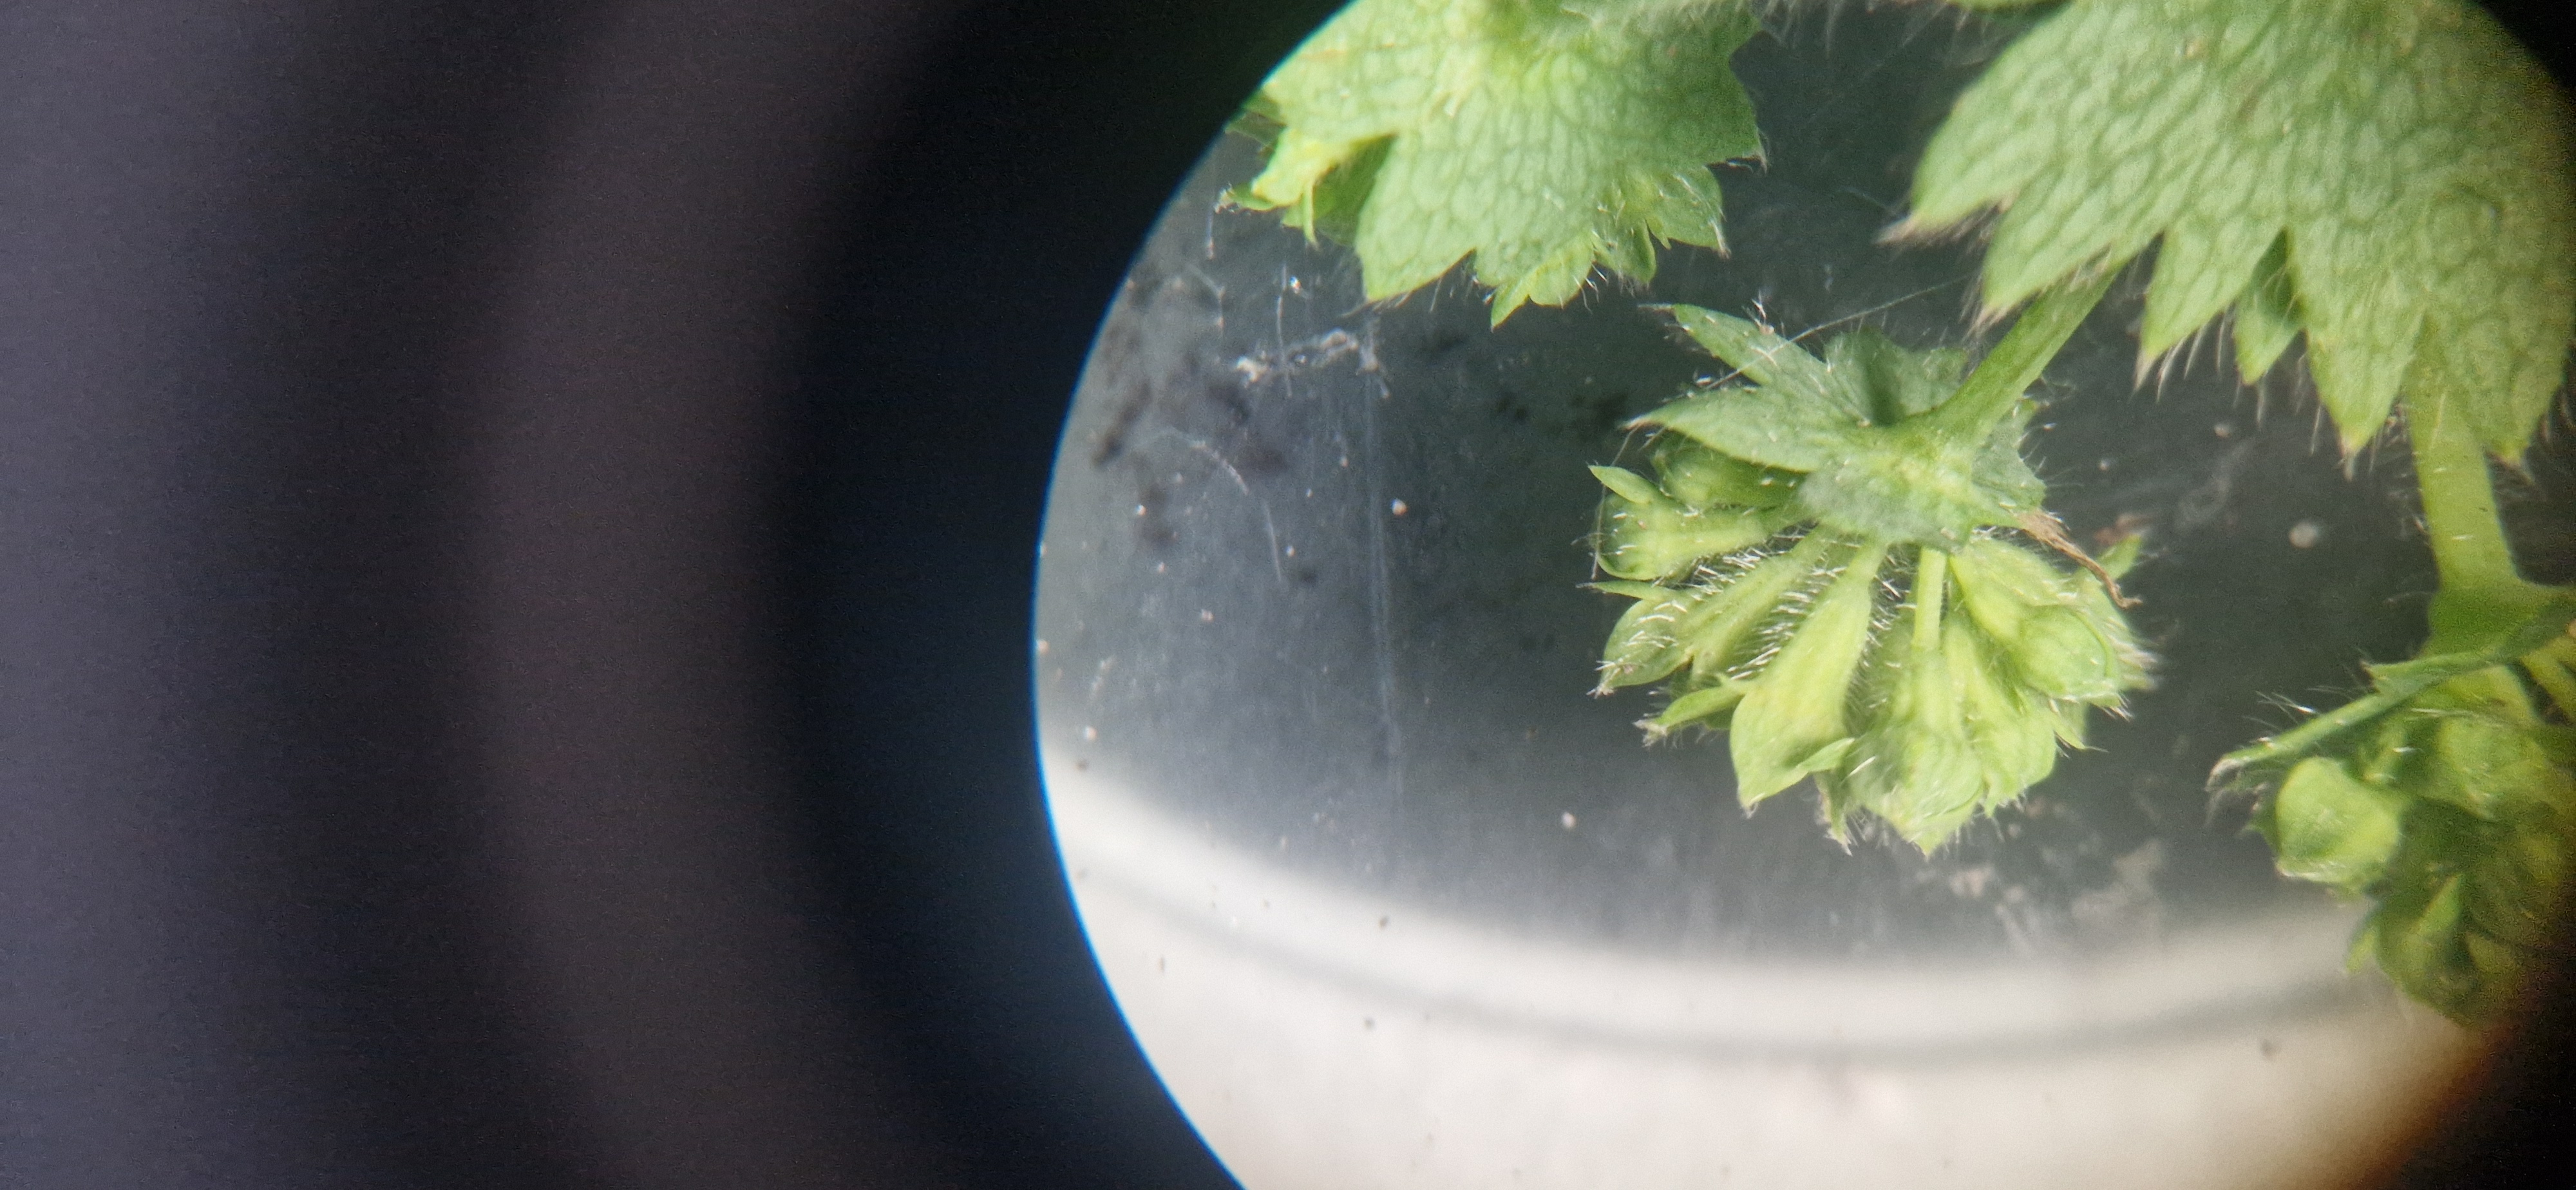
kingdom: Plantae
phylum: Tracheophyta
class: Magnoliopsida
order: Rosales
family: Rosaceae
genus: Alchemilla
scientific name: Alchemilla filicaulis
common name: Håret løvefod
